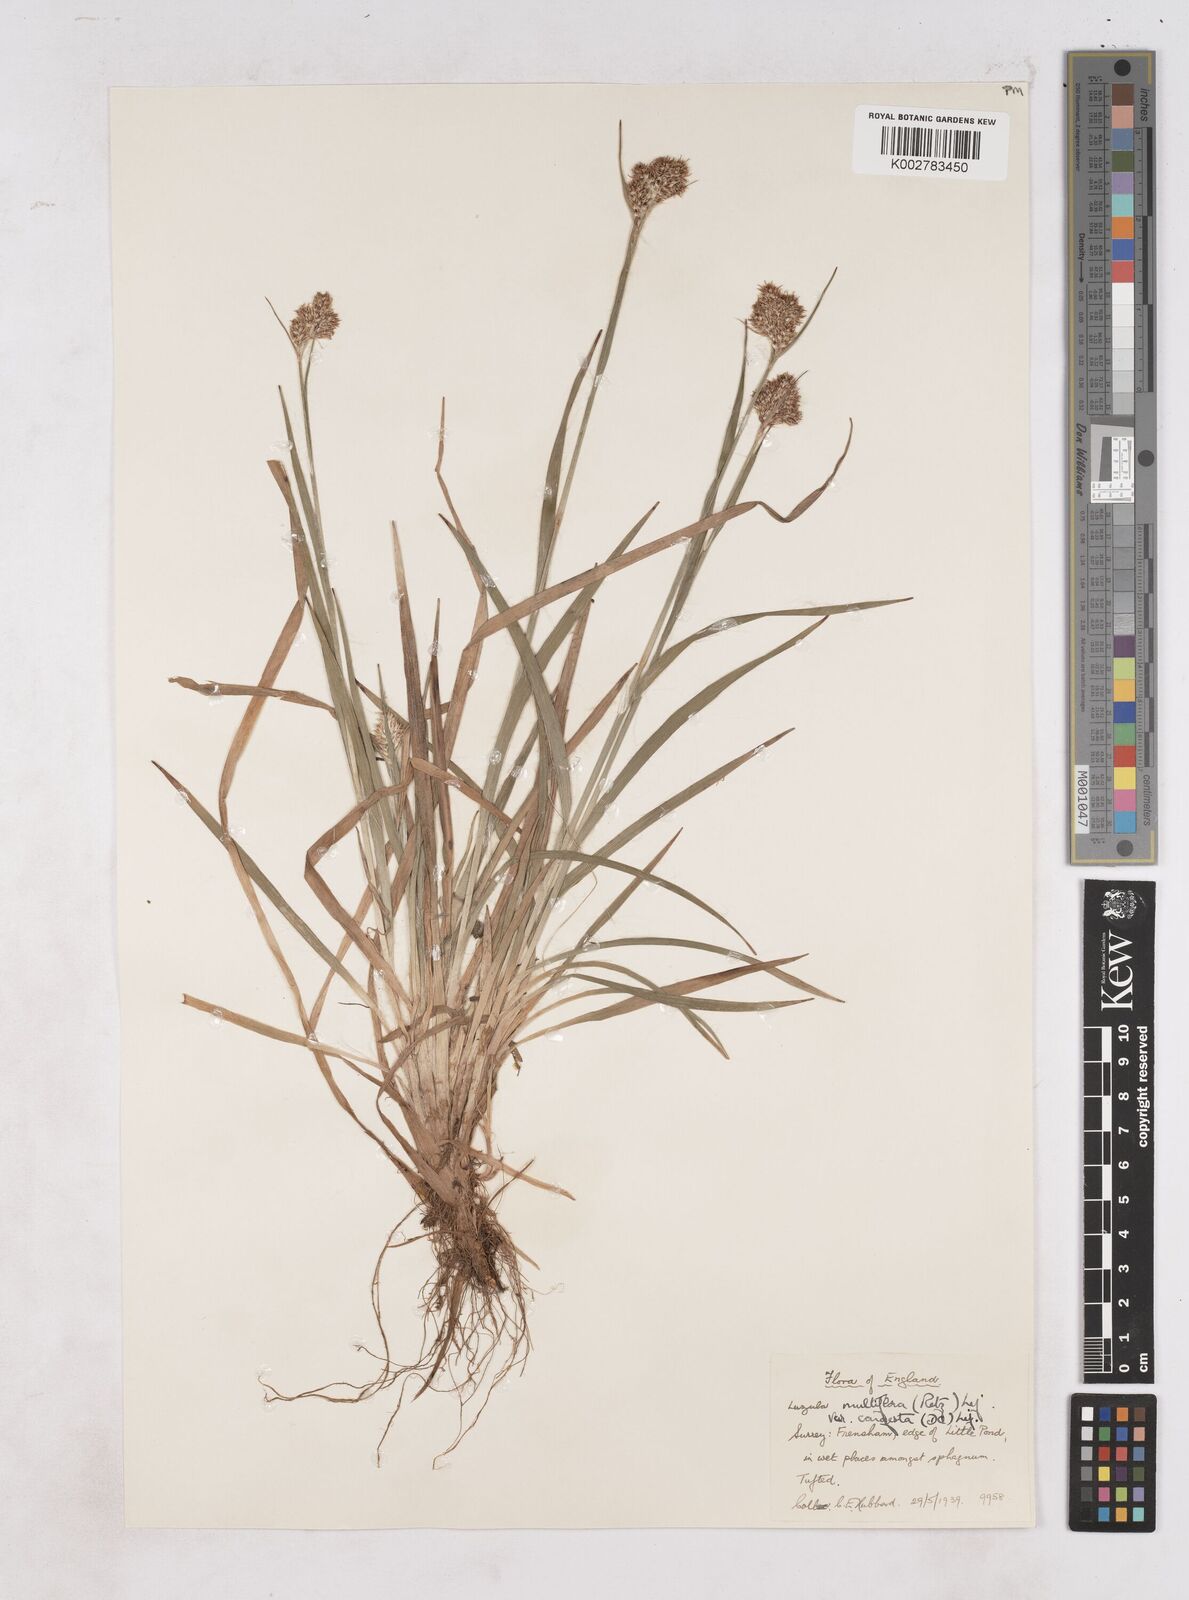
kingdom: Plantae
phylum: Tracheophyta
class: Liliopsida
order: Poales
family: Juncaceae
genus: Luzula
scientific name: Luzula campestris
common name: Field wood-rush
